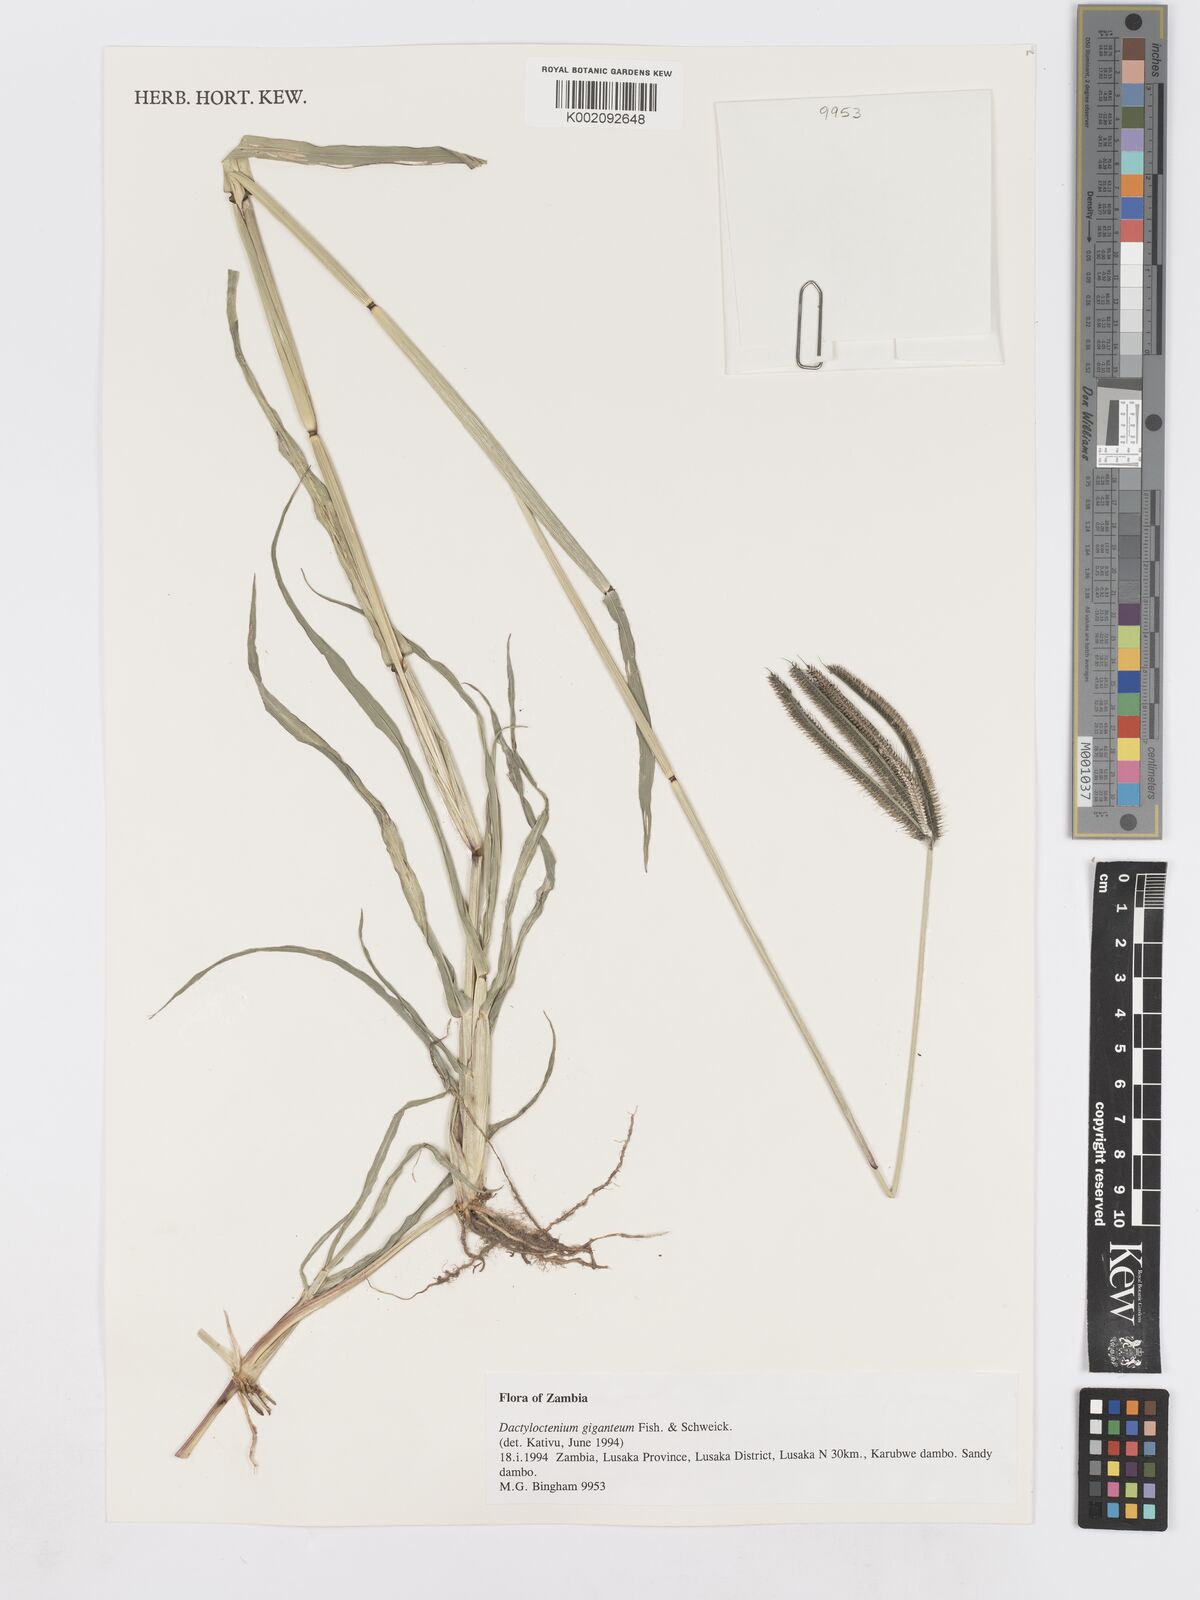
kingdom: Plantae
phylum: Tracheophyta
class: Liliopsida
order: Poales
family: Poaceae
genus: Dactyloctenium
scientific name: Dactyloctenium giganteum
